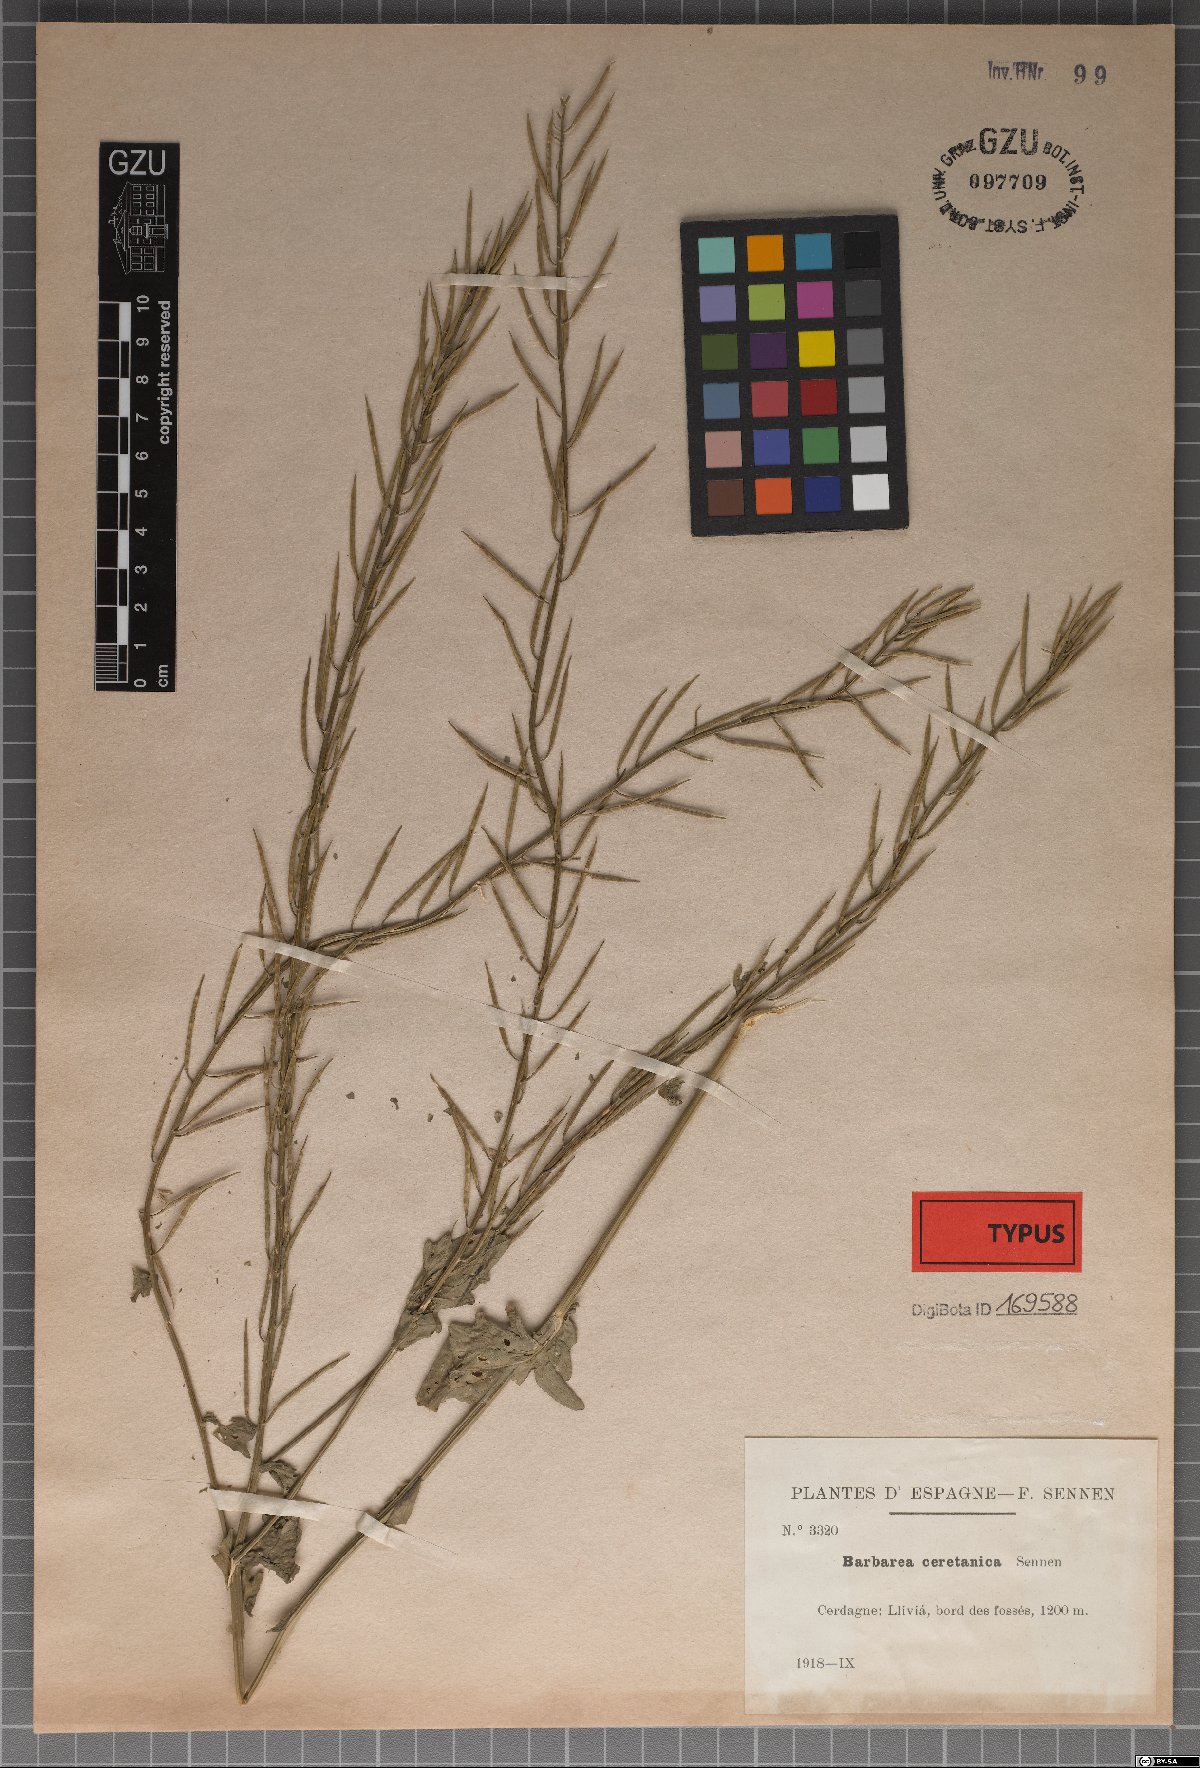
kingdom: Plantae
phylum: Tracheophyta
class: Magnoliopsida
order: Brassicales
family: Brassicaceae
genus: Barbarea
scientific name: Barbarea vulgaris
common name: Cressy-greens
